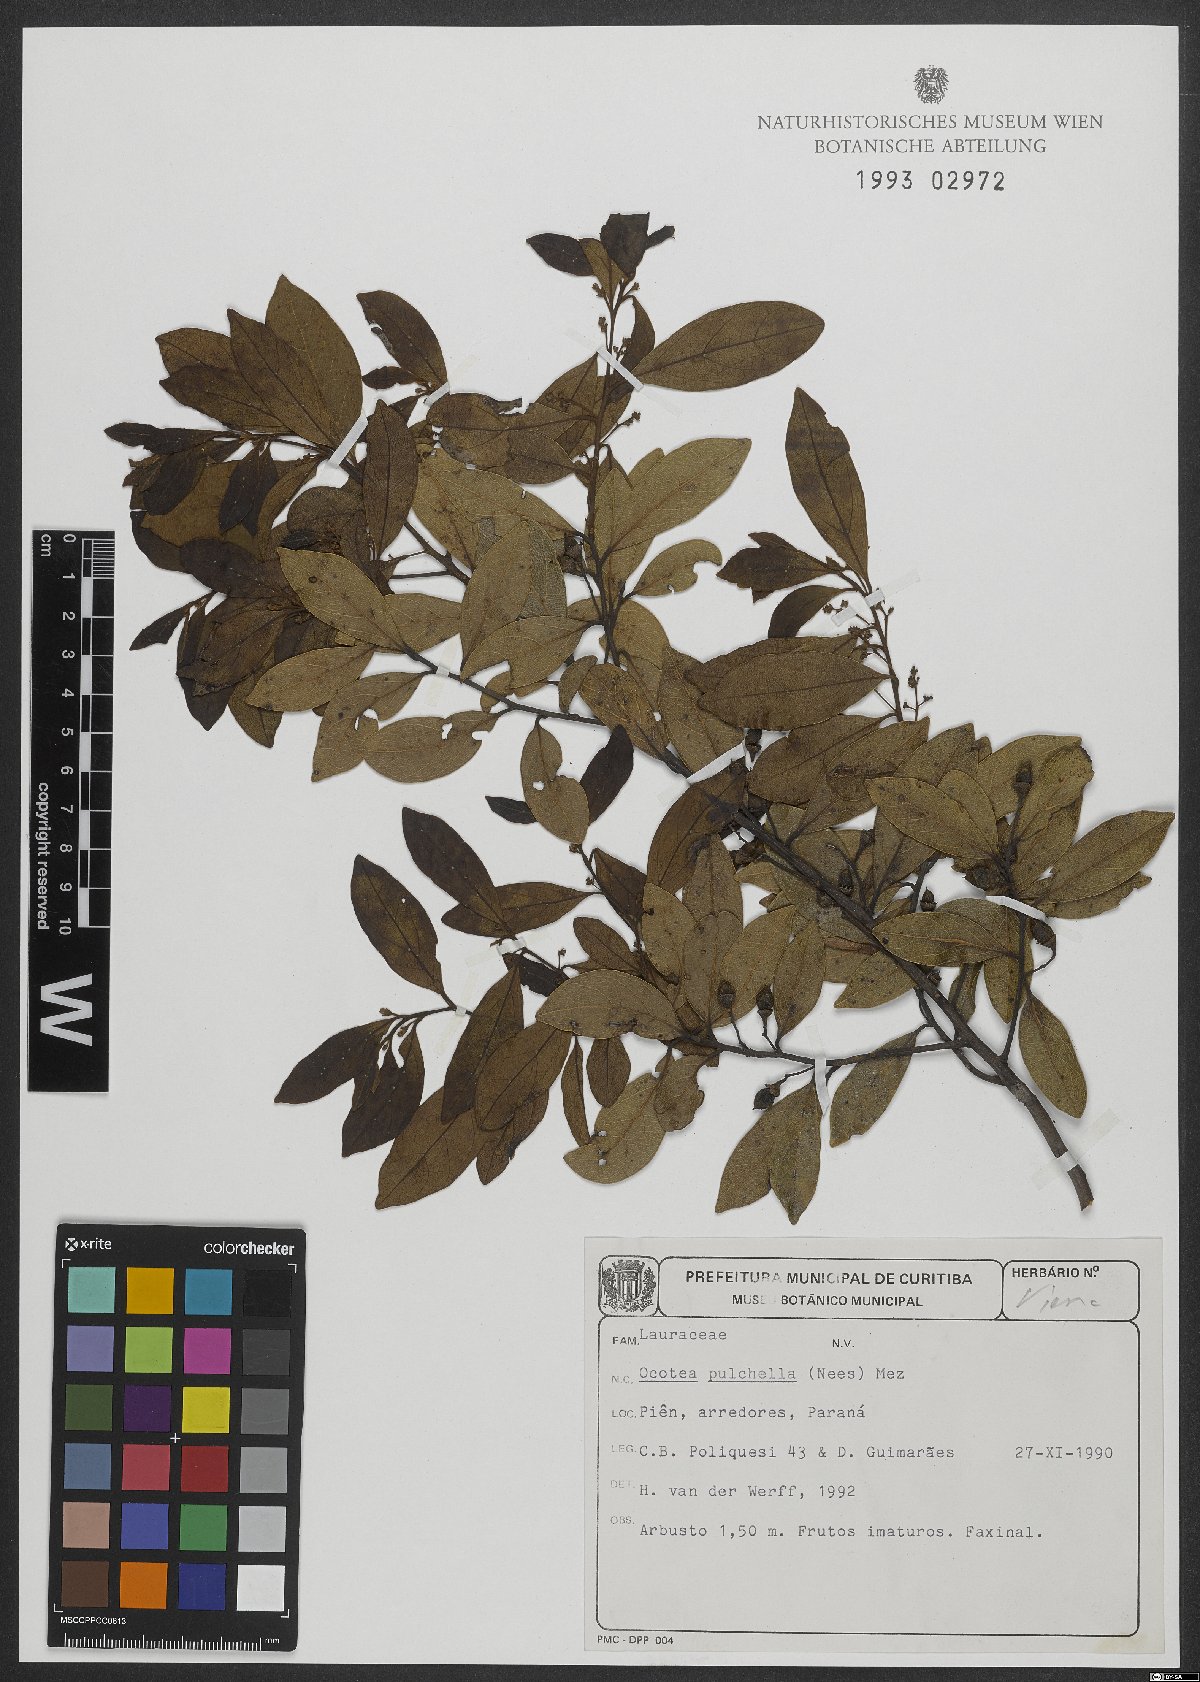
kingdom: Plantae
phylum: Tracheophyta
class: Magnoliopsida
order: Laurales
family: Lauraceae
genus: Mespilodaphne
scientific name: Mespilodaphne pulchella
